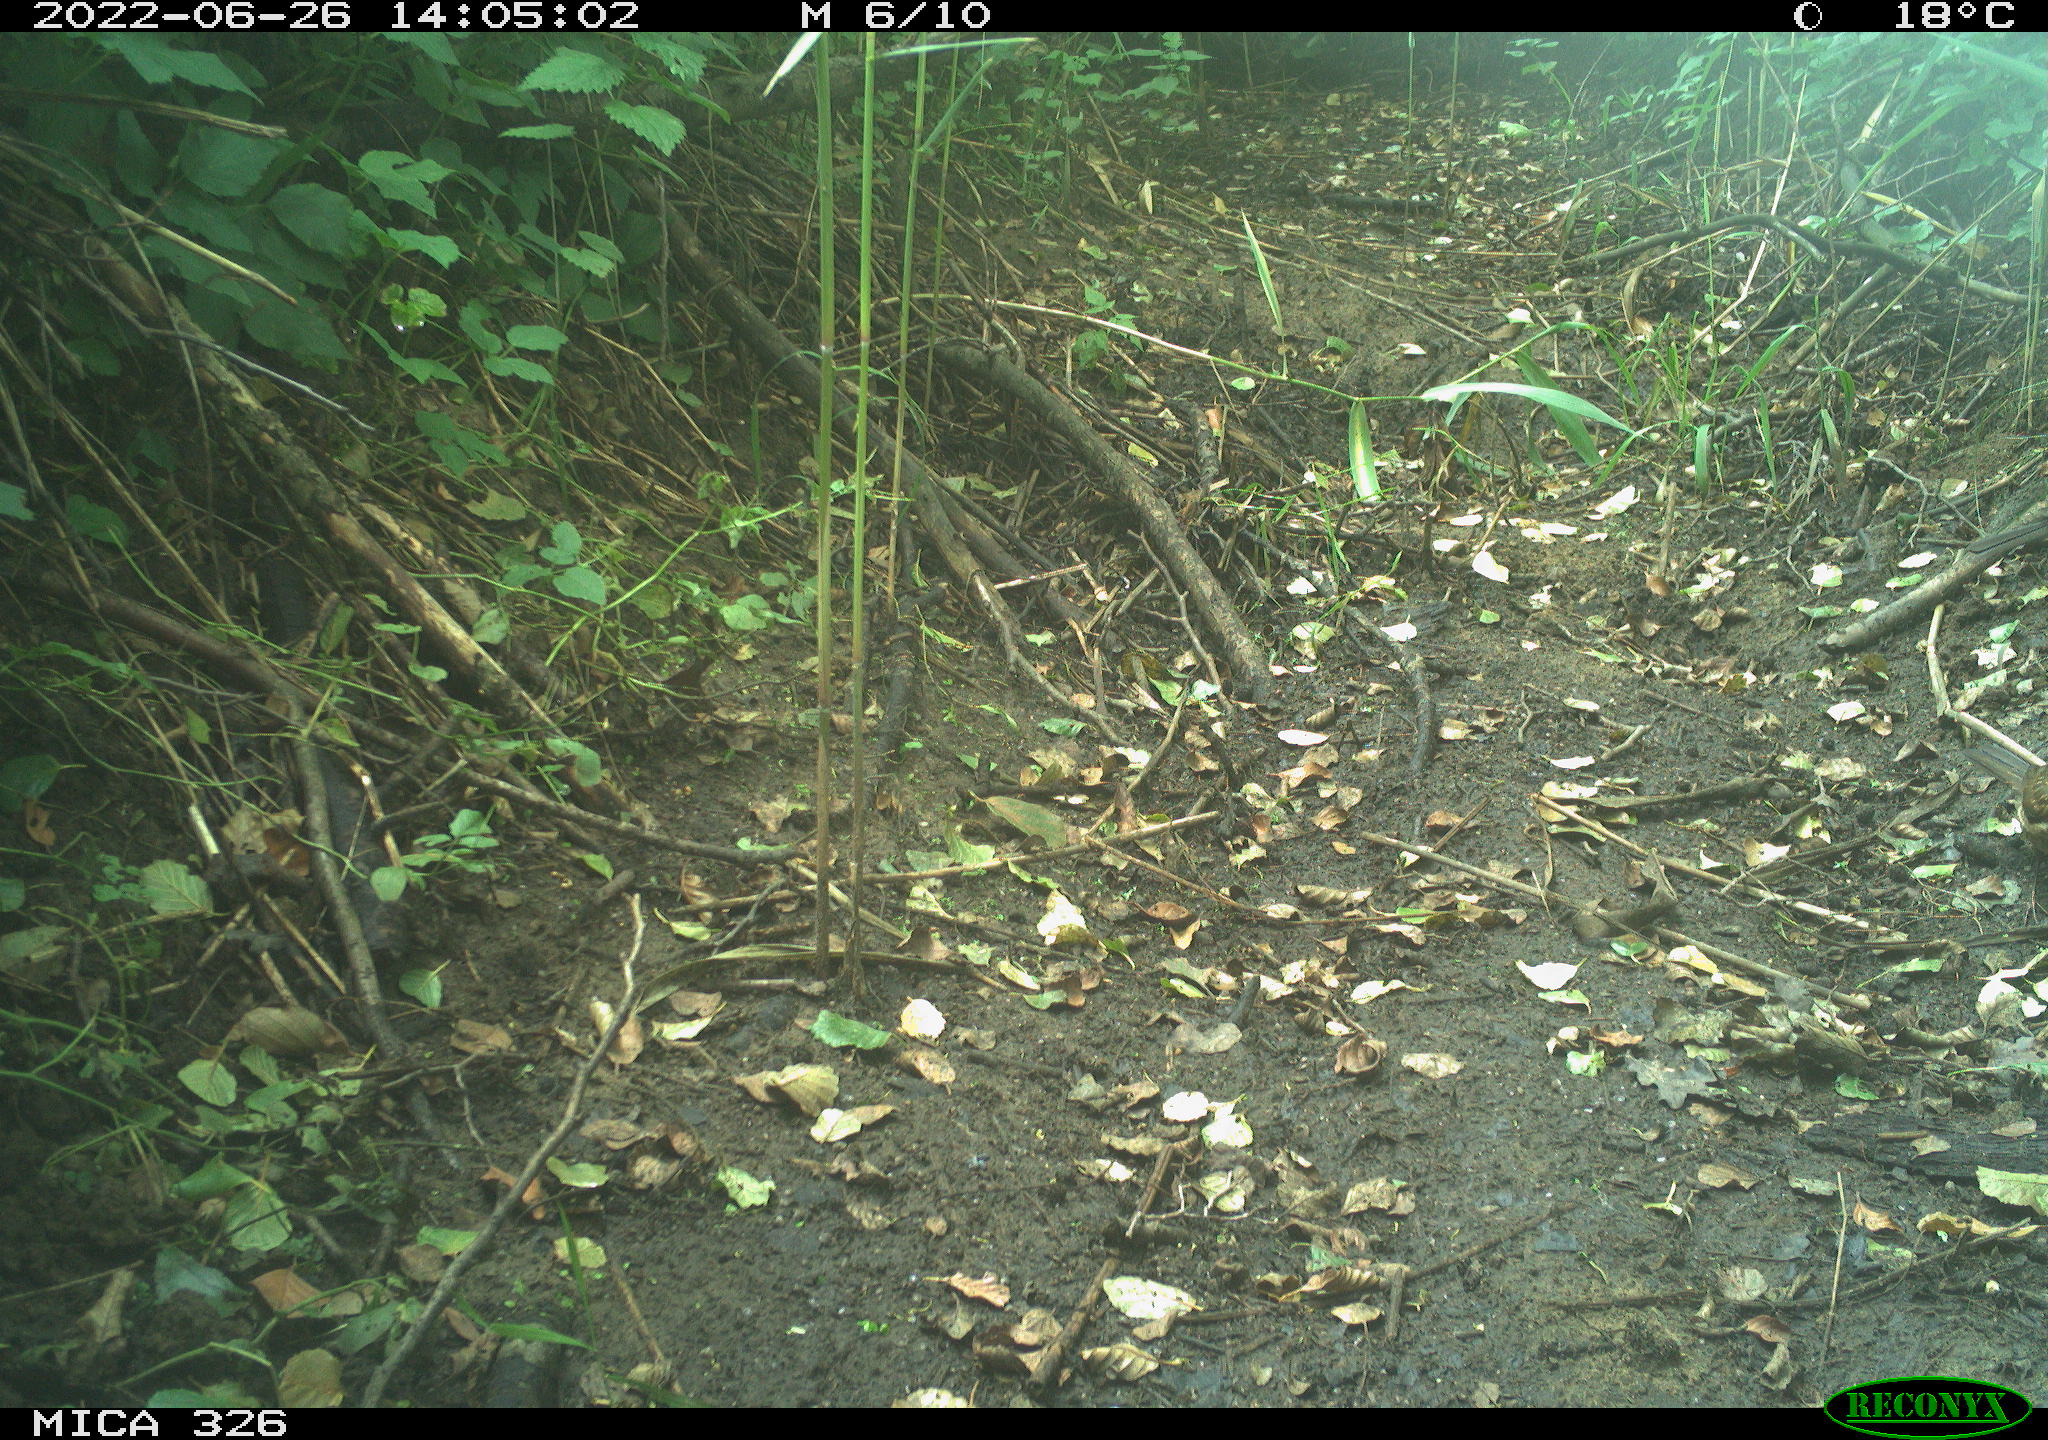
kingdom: Animalia
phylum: Chordata
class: Aves
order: Passeriformes
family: Turdidae
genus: Turdus
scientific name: Turdus
